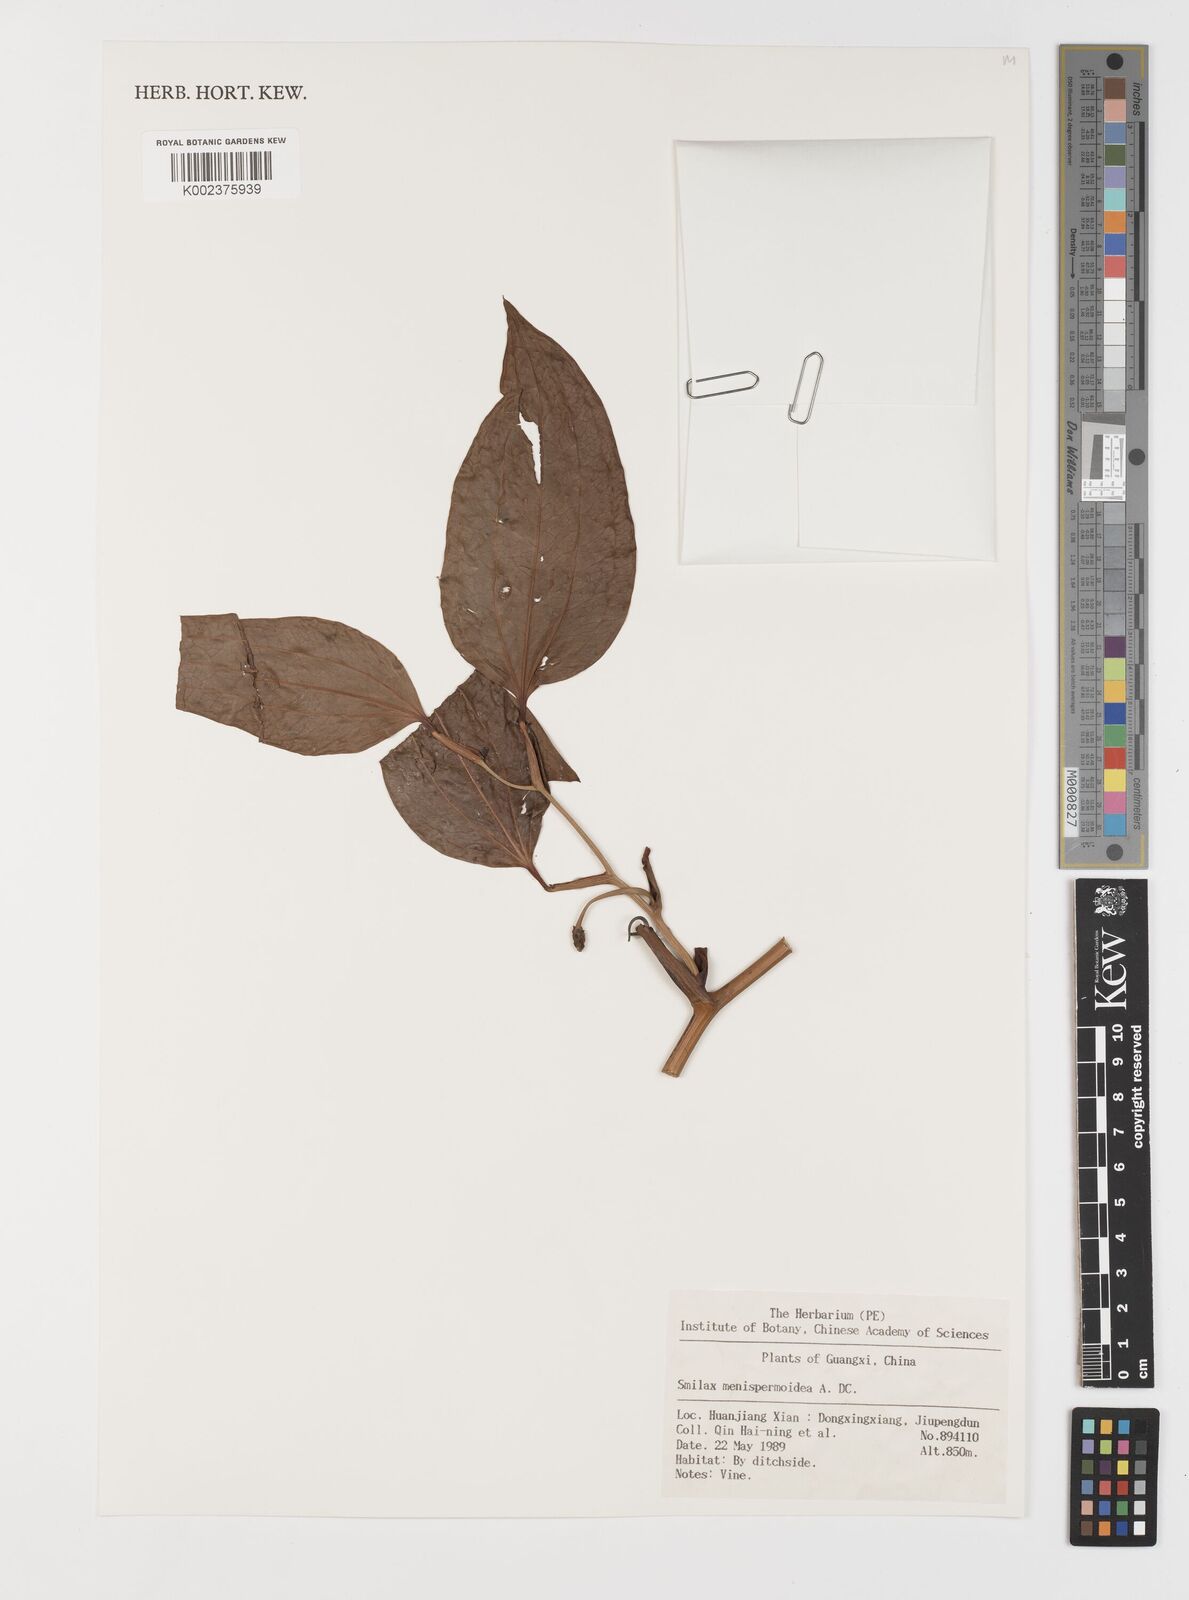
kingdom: Plantae
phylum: Tracheophyta
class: Liliopsida
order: Liliales
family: Smilacaceae
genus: Smilax
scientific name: Smilax menispermoidea
